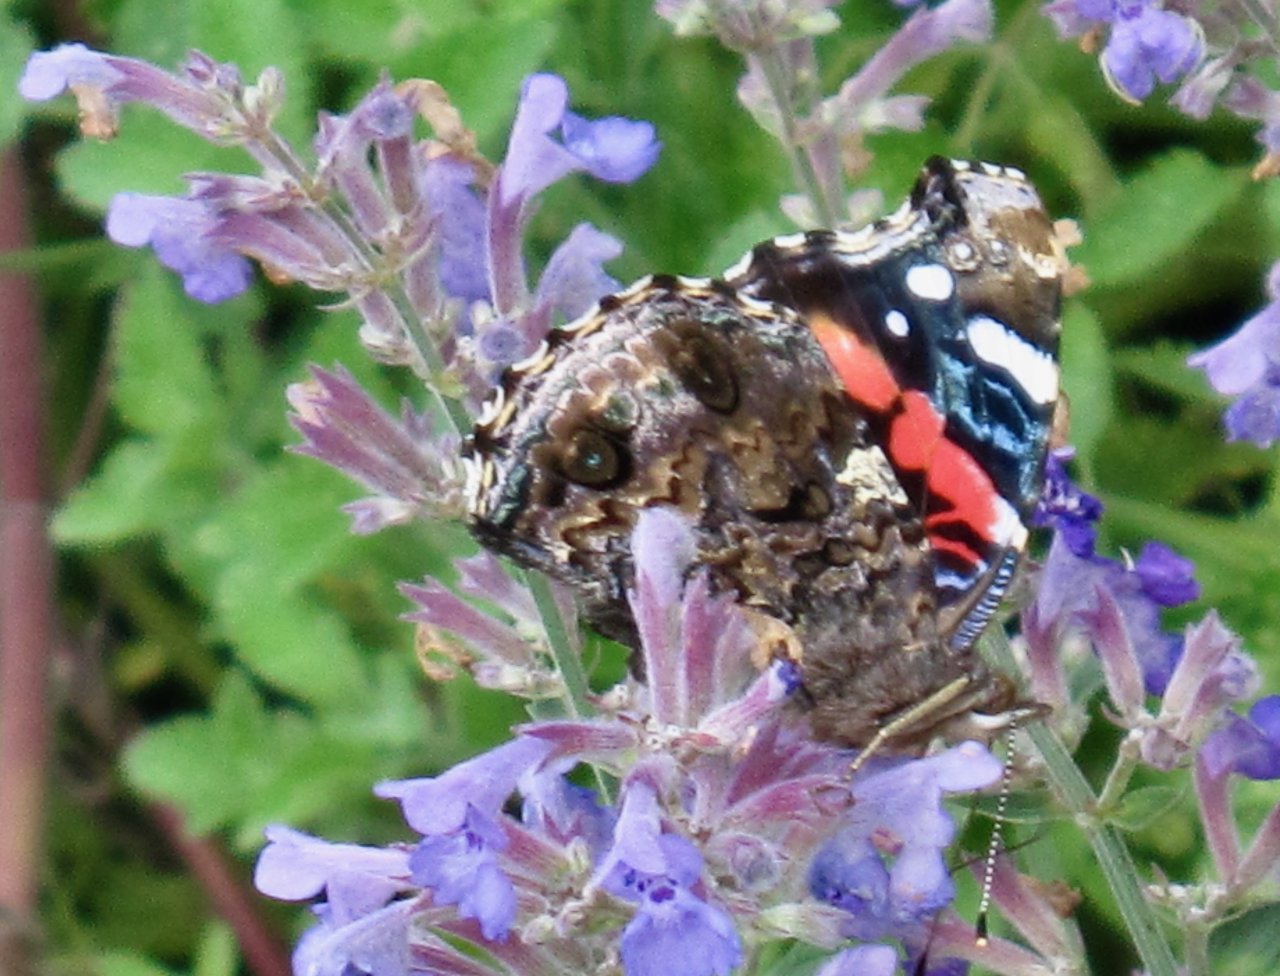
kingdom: Animalia
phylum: Arthropoda
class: Insecta
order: Lepidoptera
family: Nymphalidae
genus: Vanessa
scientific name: Vanessa atalanta
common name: Red Admiral
